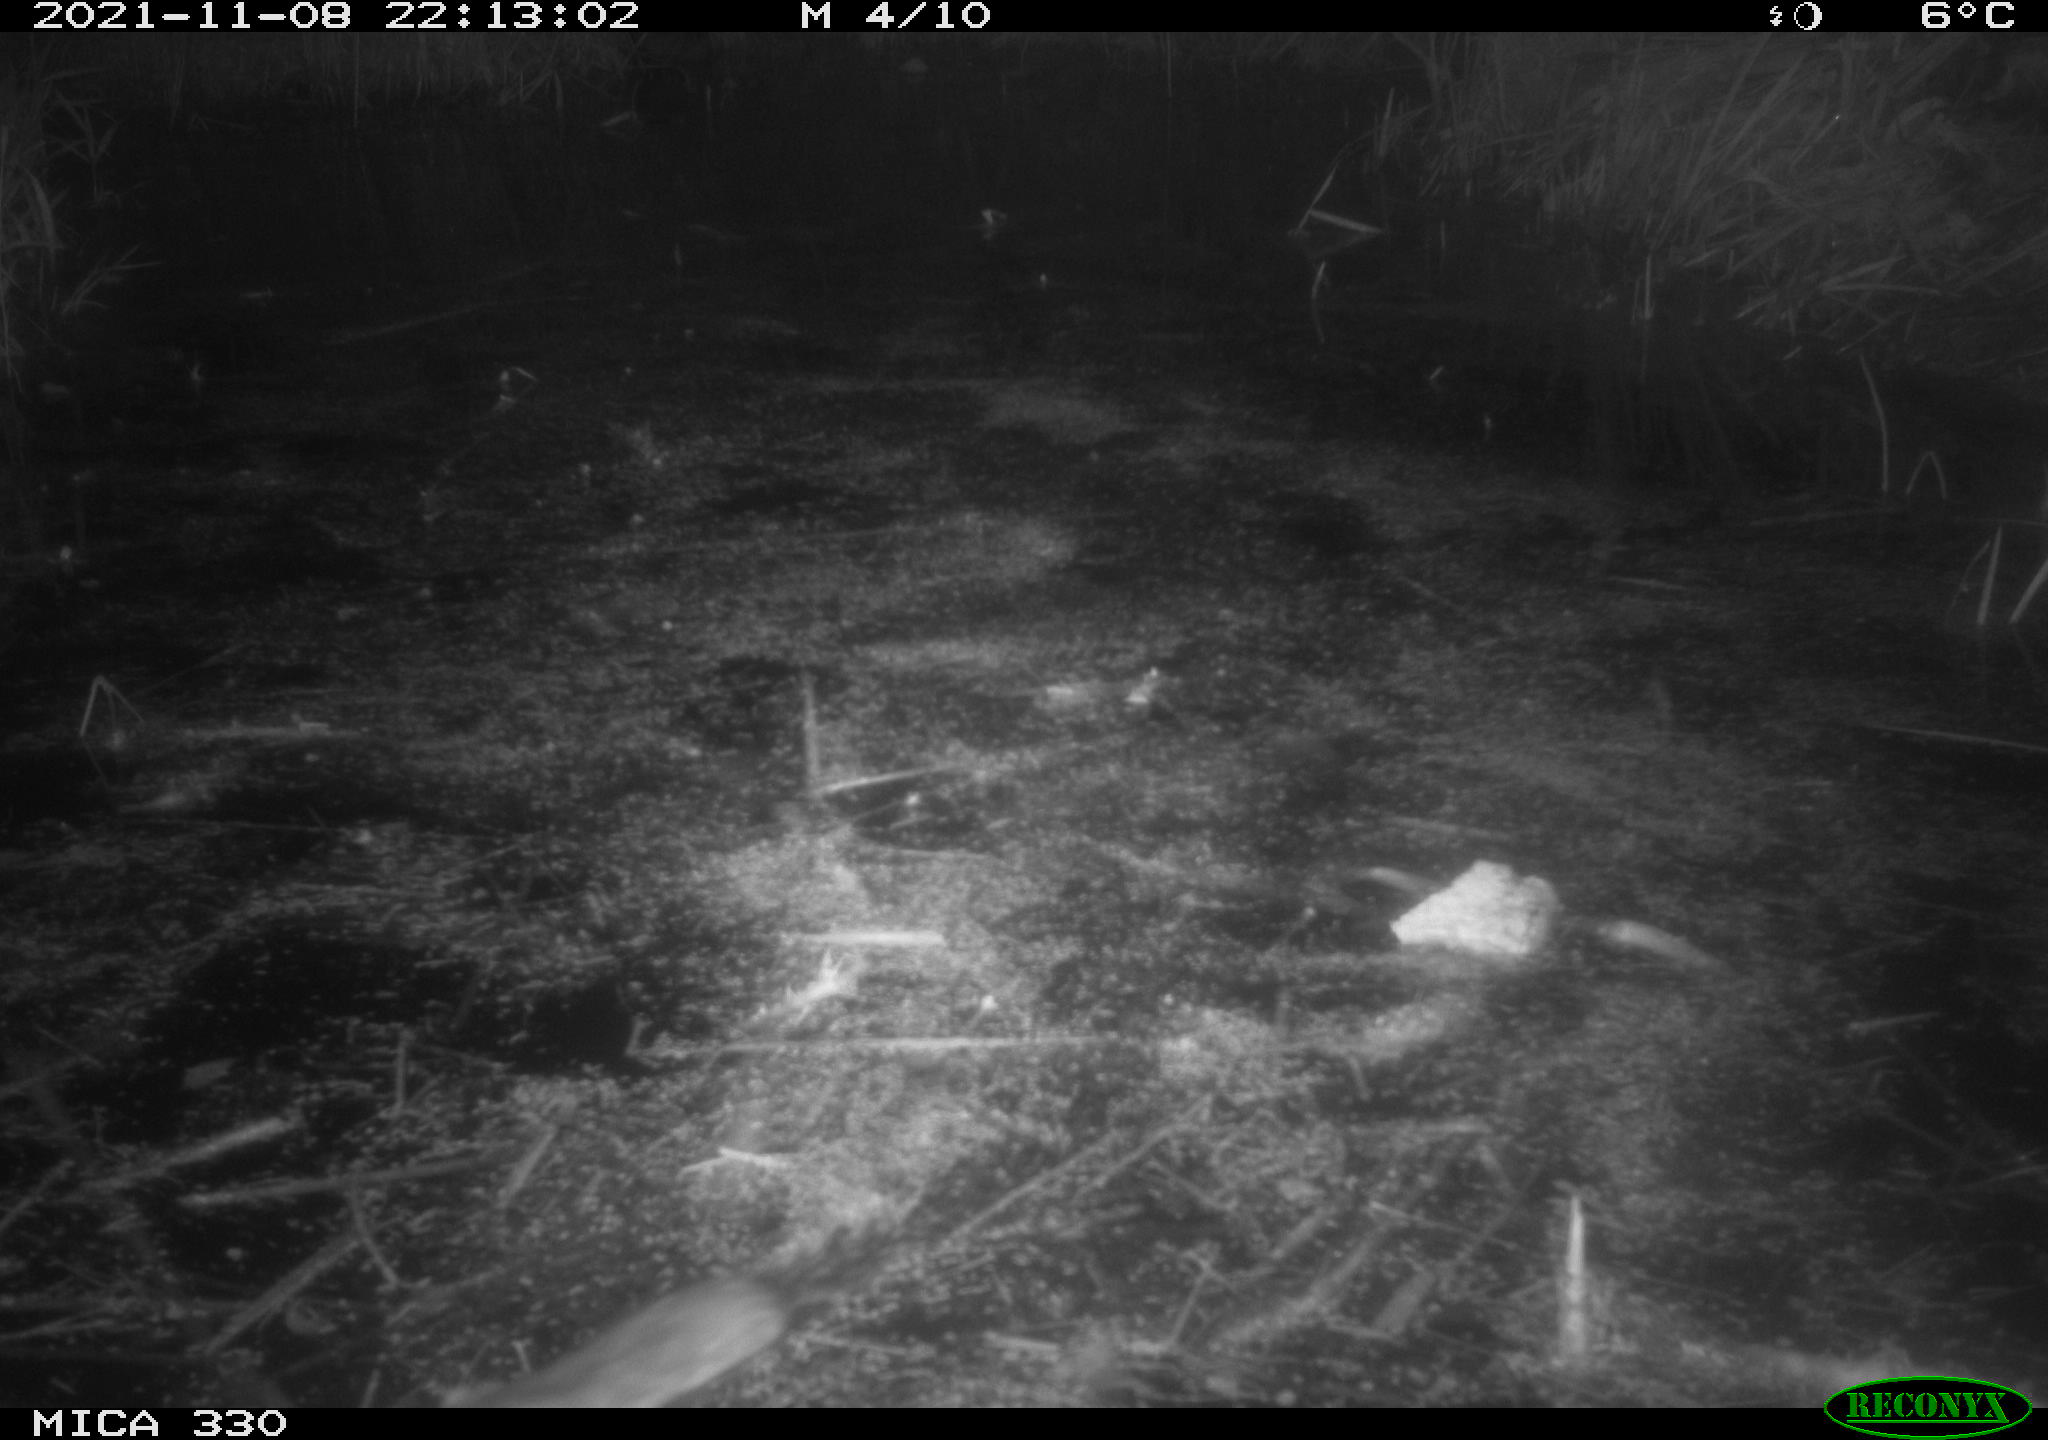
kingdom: Animalia
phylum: Chordata
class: Mammalia
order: Rodentia
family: Muridae
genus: Rattus
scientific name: Rattus norvegicus
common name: Brown rat
